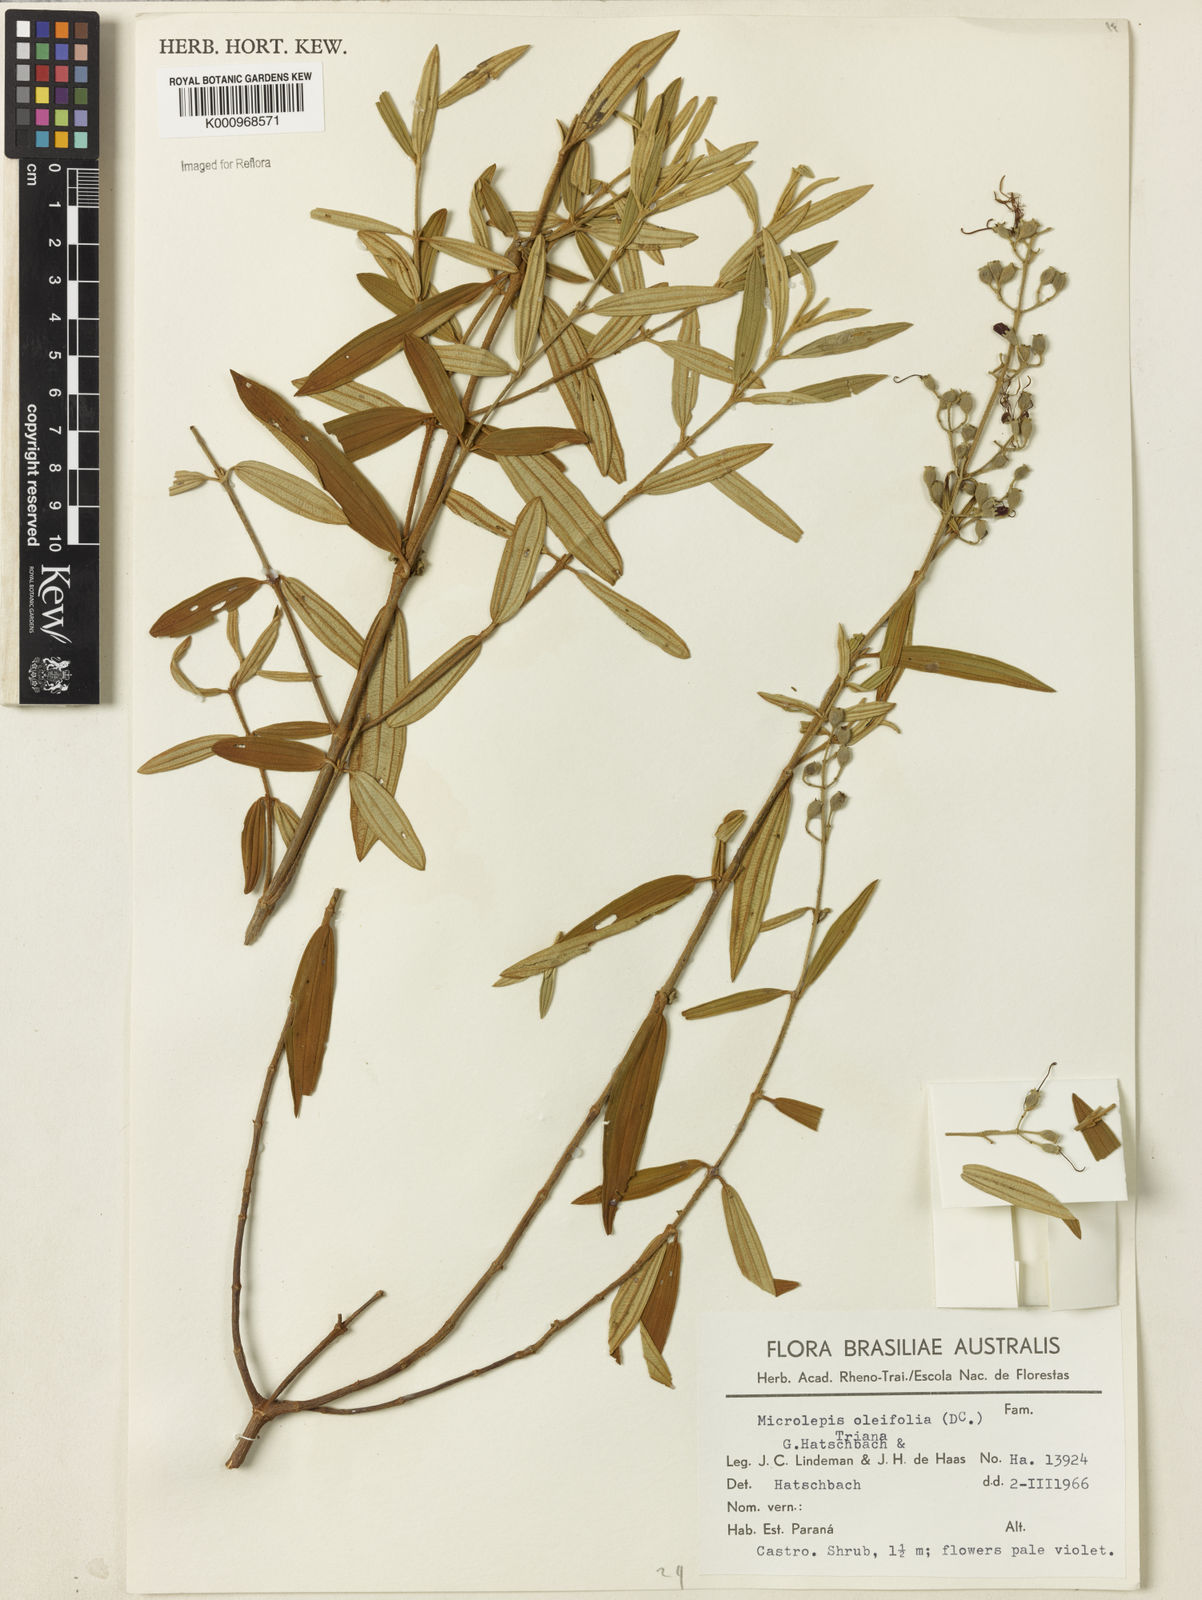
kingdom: Plantae
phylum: Tracheophyta
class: Magnoliopsida
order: Myrtales
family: Melastomataceae
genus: Pleroma
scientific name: Pleroma oleifolia
